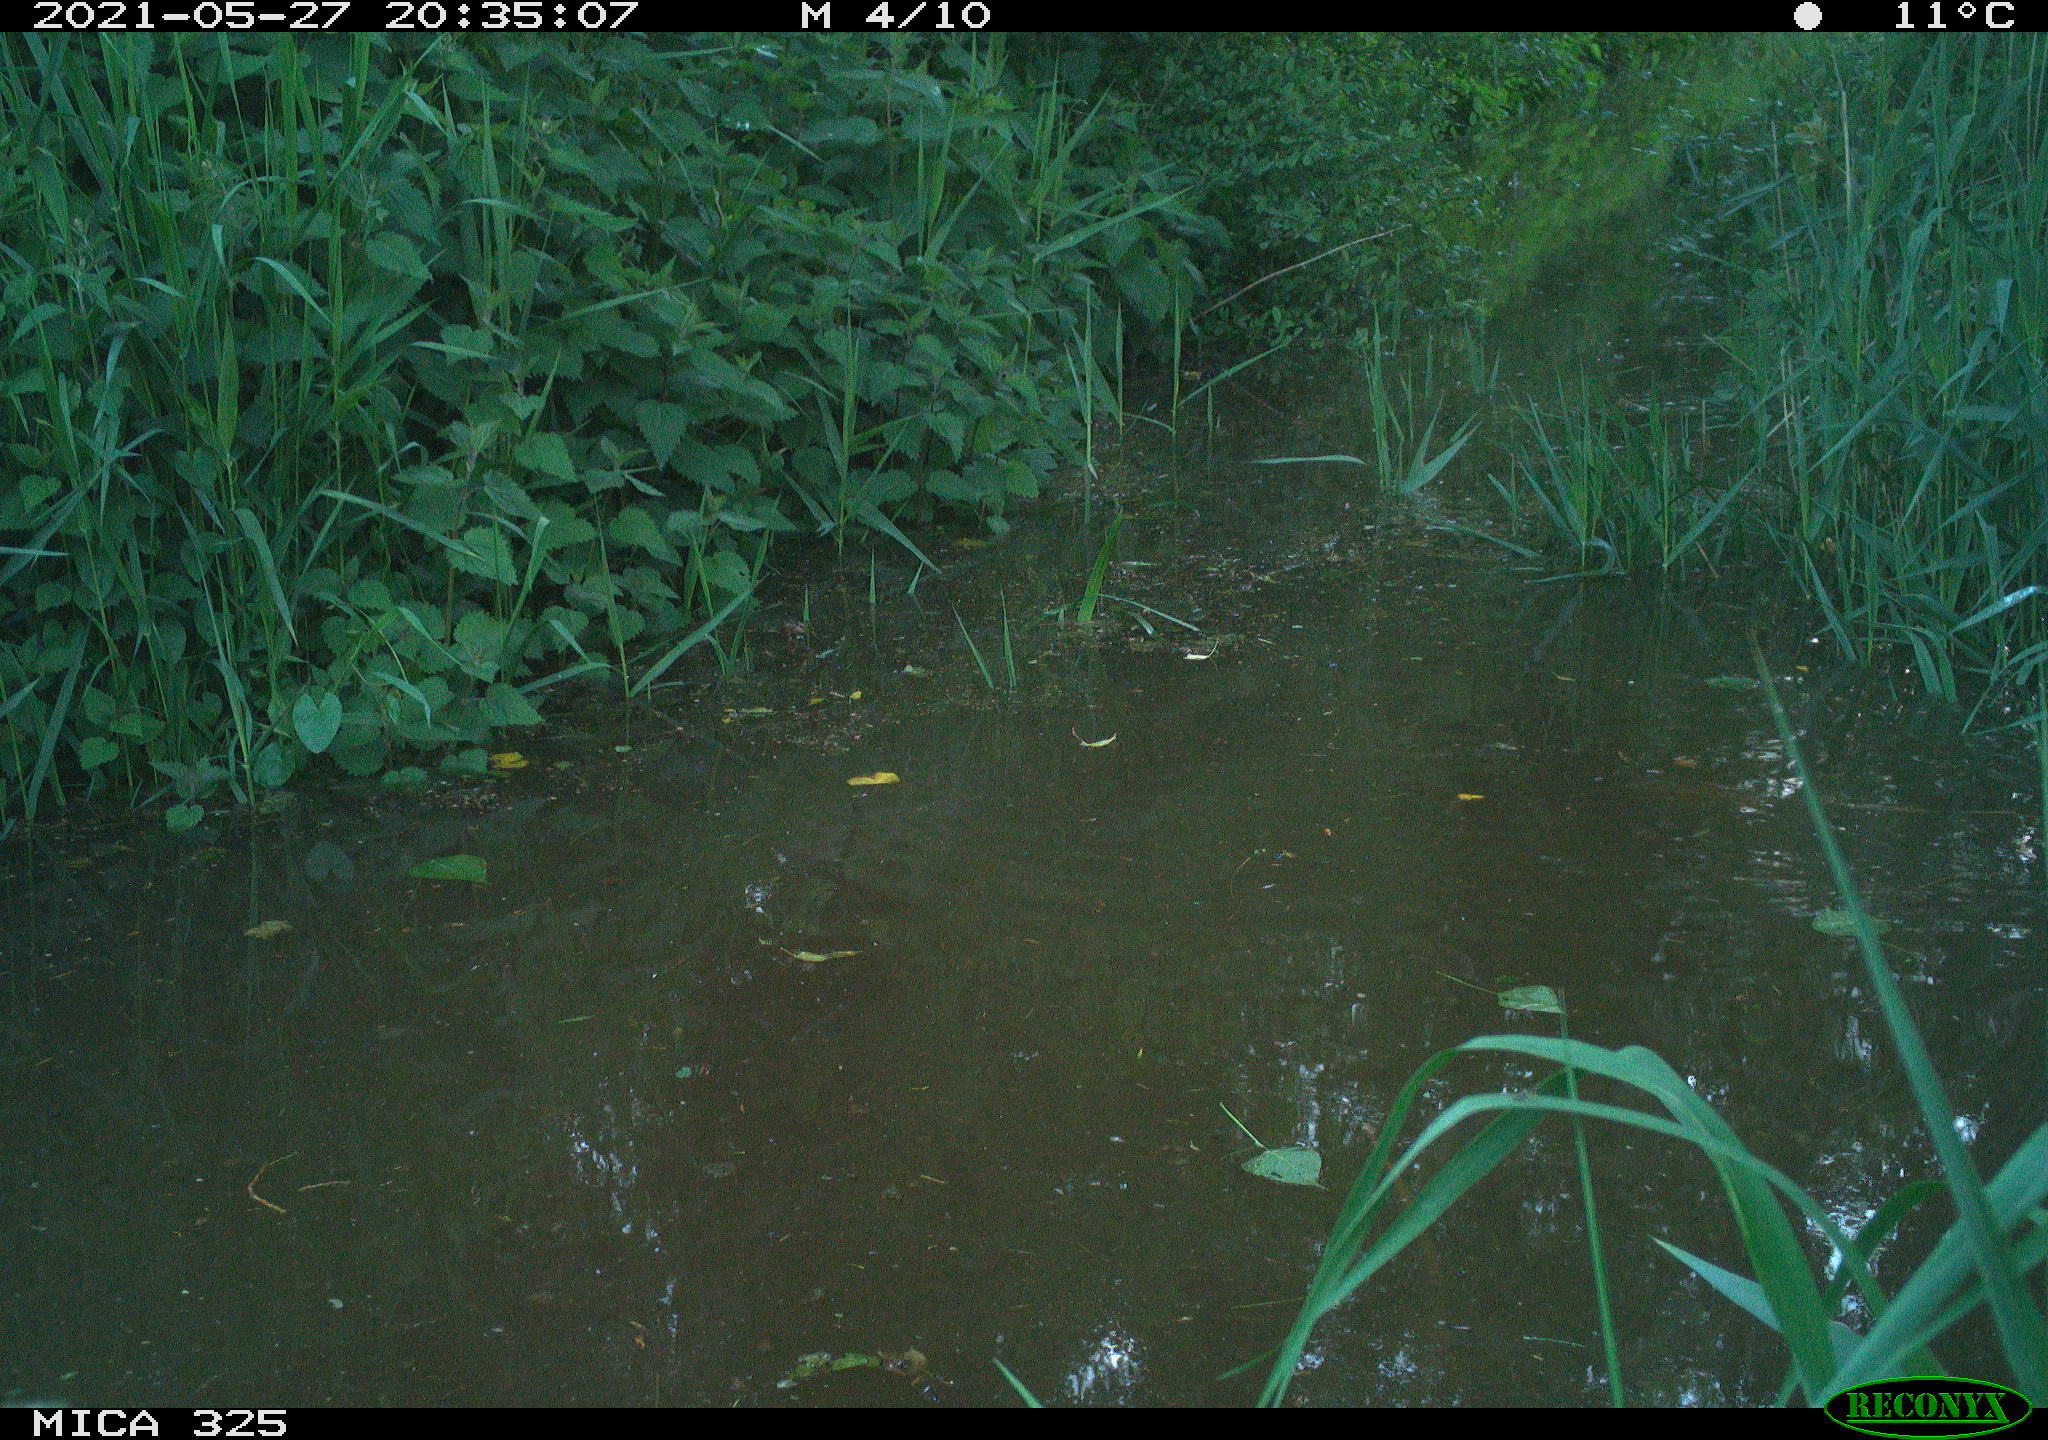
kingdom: Animalia
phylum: Chordata
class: Aves
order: Anseriformes
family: Anatidae
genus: Anas
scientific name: Anas platyrhynchos
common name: Mallard
